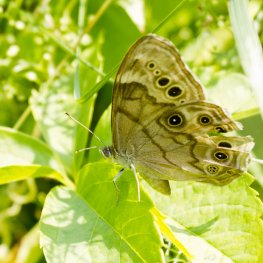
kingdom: Animalia
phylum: Arthropoda
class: Insecta
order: Lepidoptera
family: Nymphalidae
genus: Lethe
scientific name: Lethe anthedon
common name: Northern Pearly-Eye
